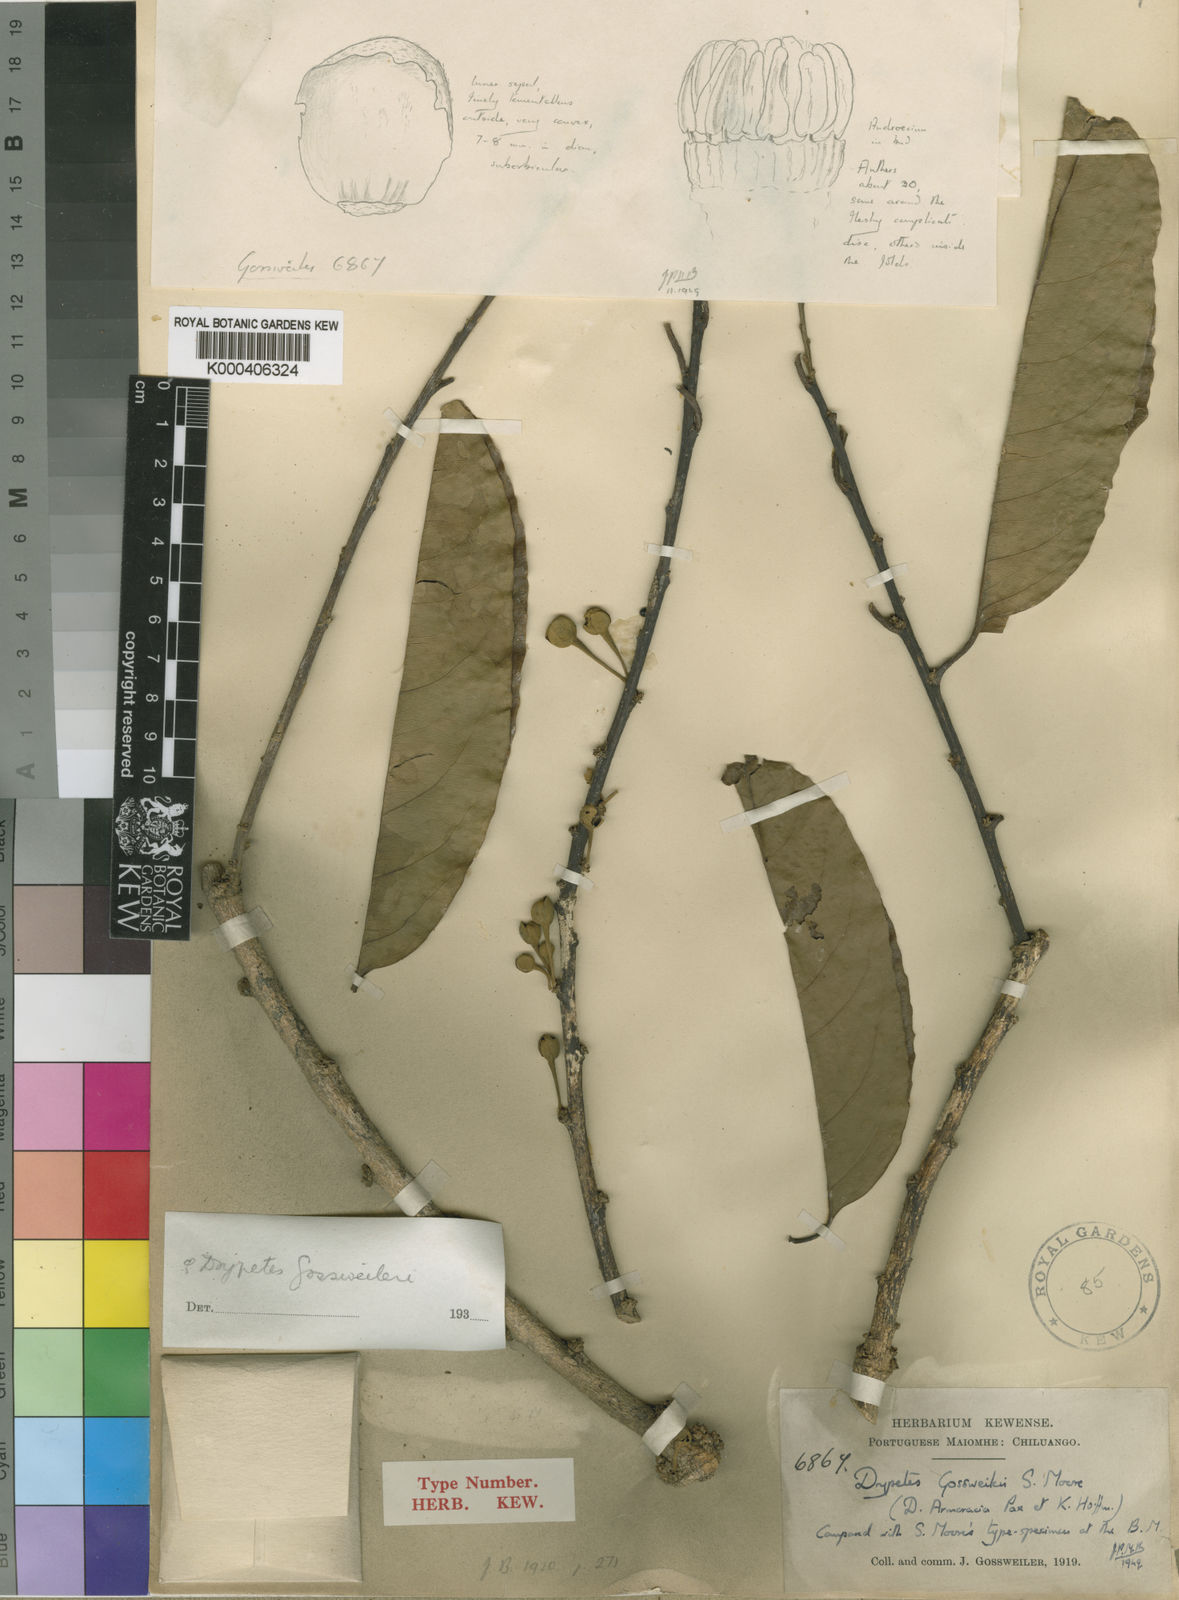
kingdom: Plantae
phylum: Tracheophyta
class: Magnoliopsida
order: Malpighiales
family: Putranjivaceae
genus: Drypetes
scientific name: Drypetes gossweileri
